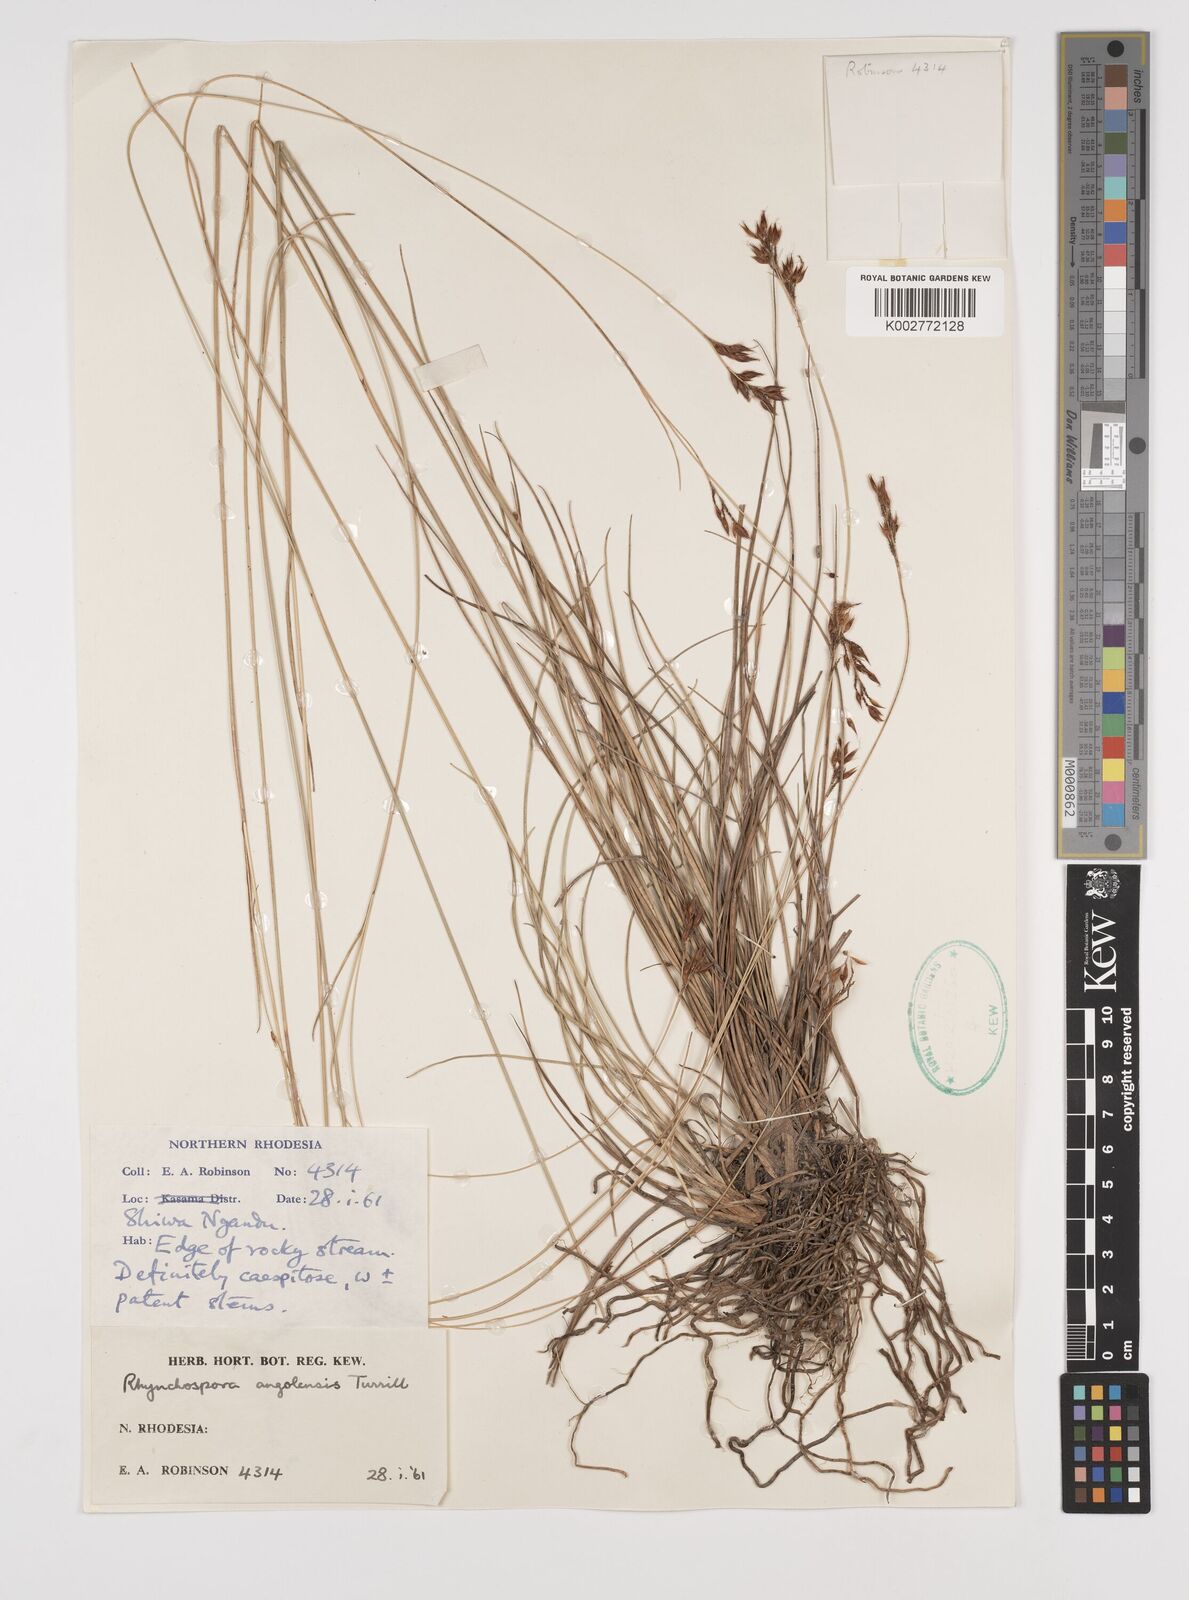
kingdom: Plantae
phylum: Tracheophyta
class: Liliopsida
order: Poales
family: Cyperaceae
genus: Rhynchospora
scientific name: Rhynchospora angolensis
